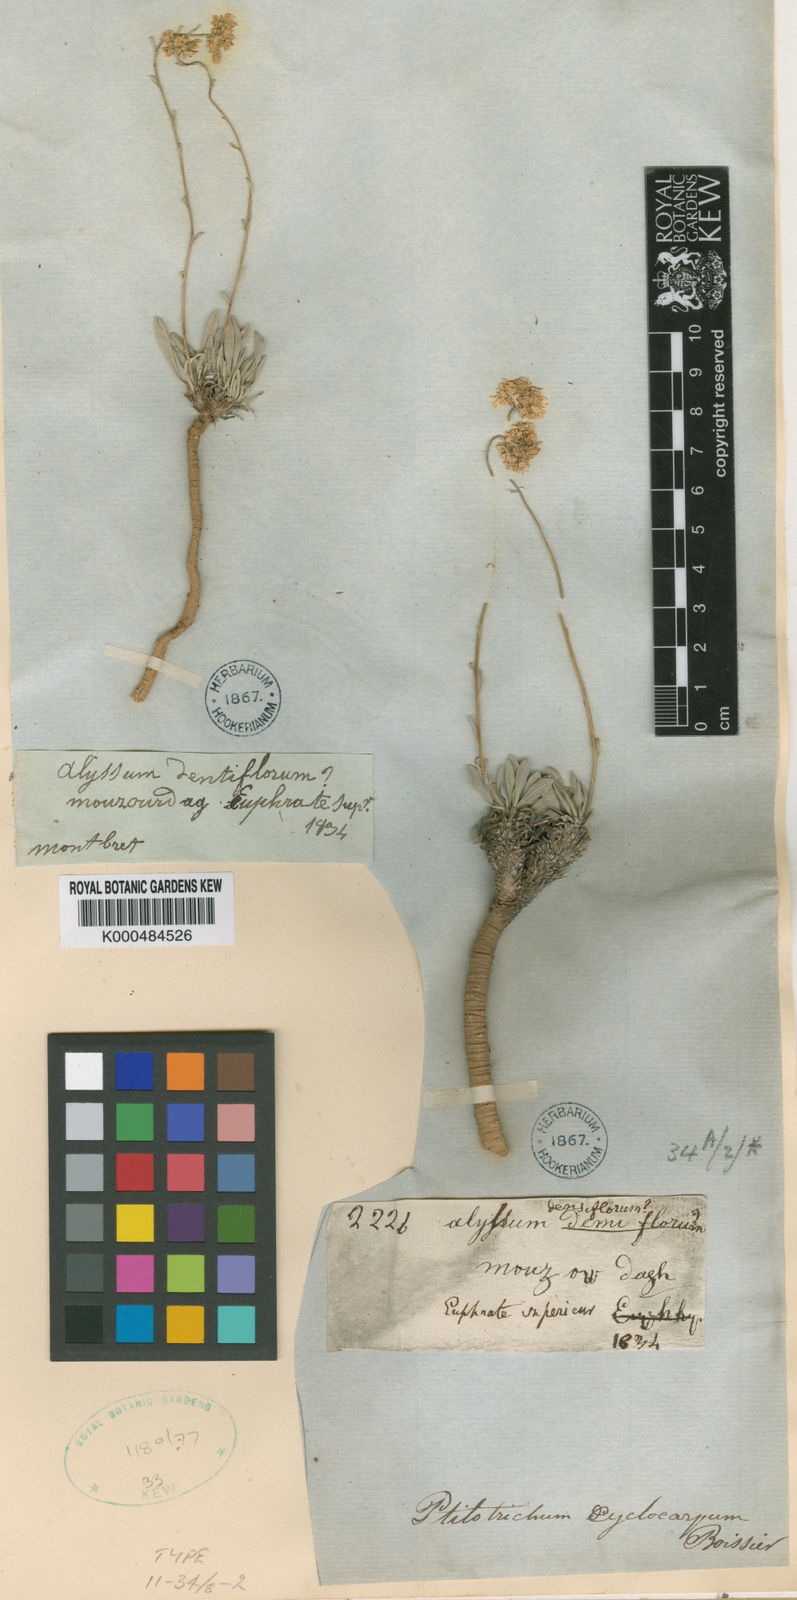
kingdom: Plantae
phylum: Tracheophyta
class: Magnoliopsida
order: Brassicales
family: Brassicaceae
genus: Phyllolepidium
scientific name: Phyllolepidium cyclocarpum
